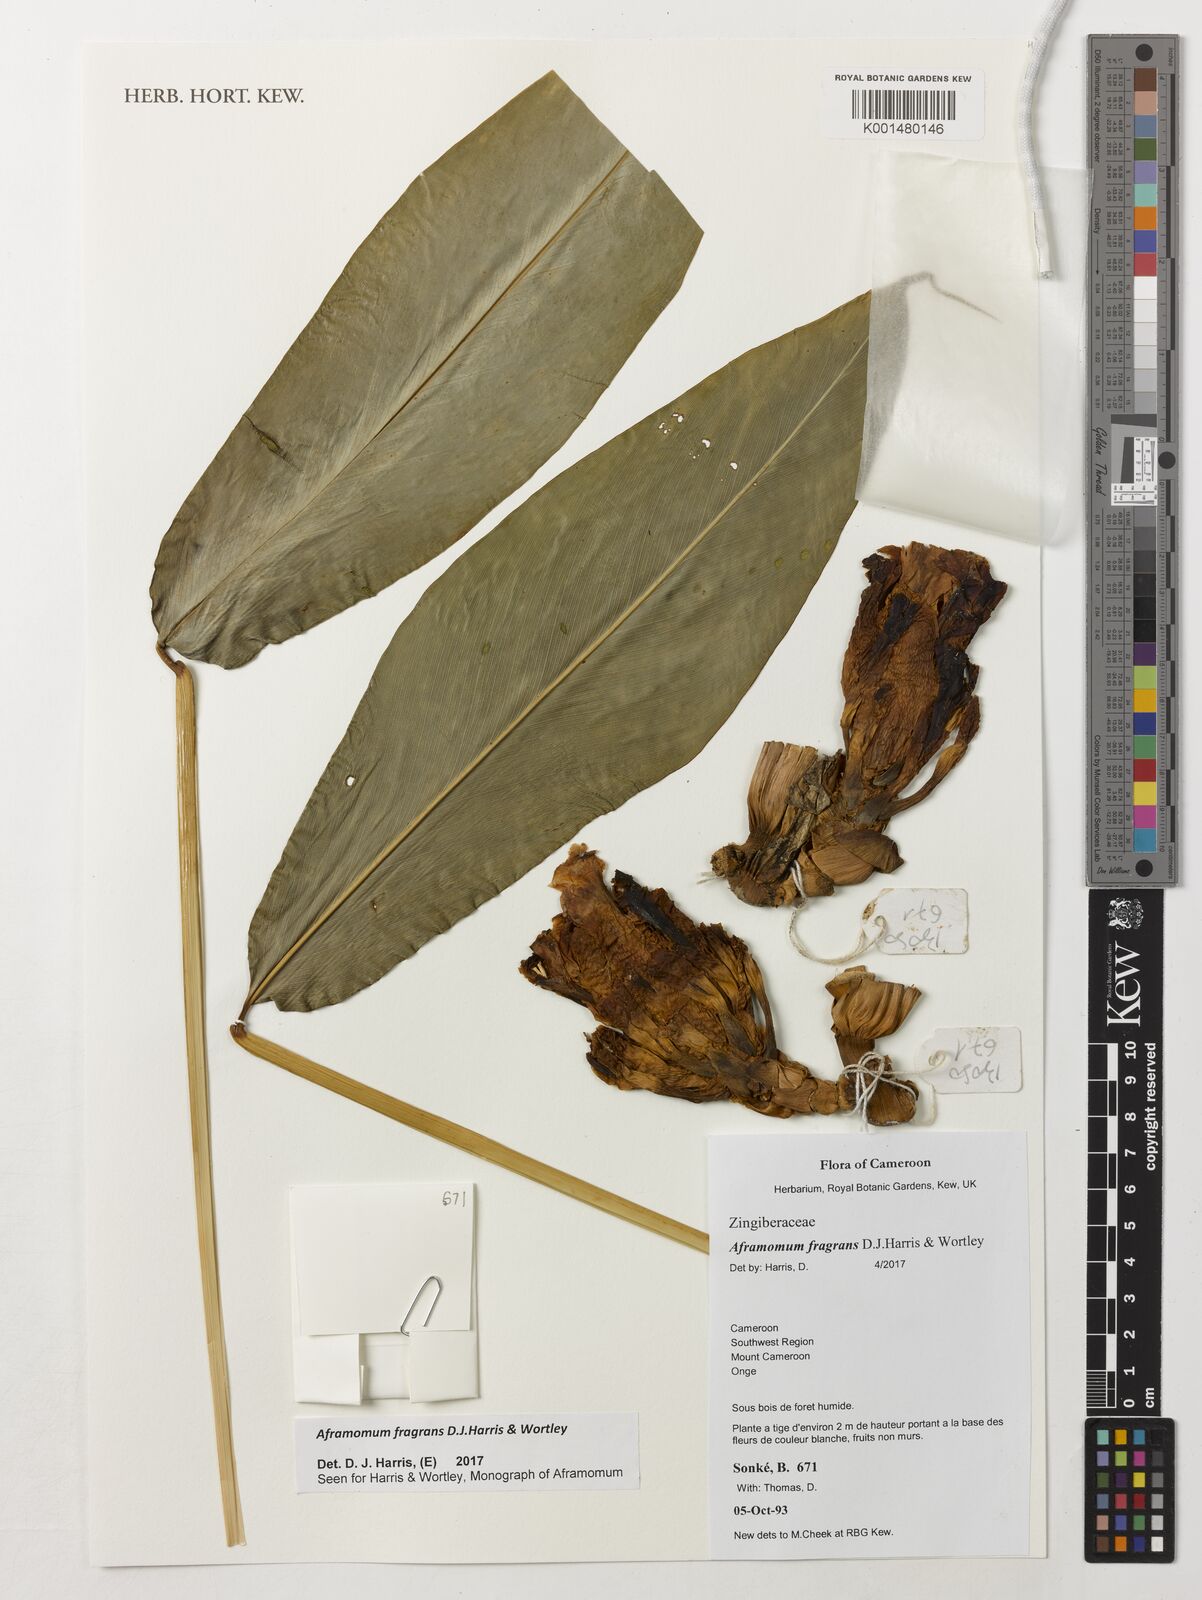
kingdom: Plantae
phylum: Tracheophyta
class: Liliopsida
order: Zingiberales
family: Zingiberaceae
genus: Aframomum
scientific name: Aframomum fragrans
